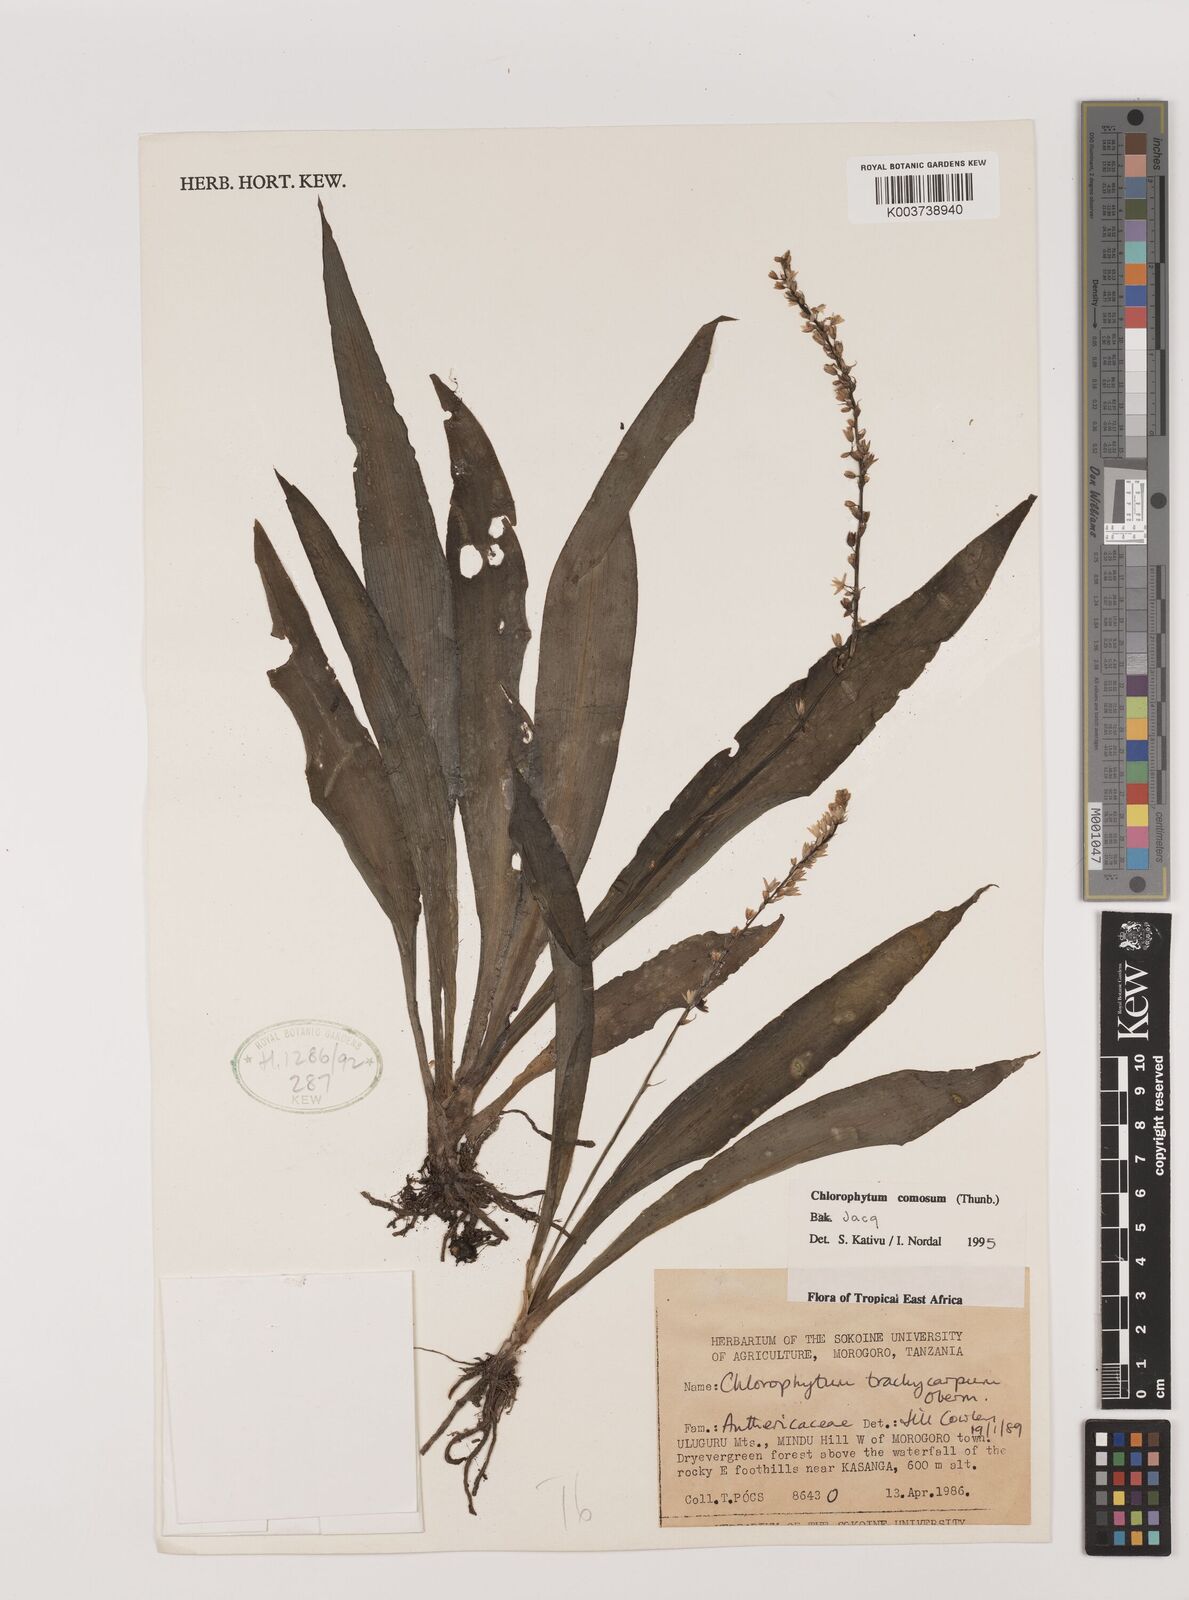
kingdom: Plantae
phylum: Tracheophyta
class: Liliopsida
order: Asparagales
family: Asparagaceae
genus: Chlorophytum
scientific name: Chlorophytum comosum
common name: Spider plant
